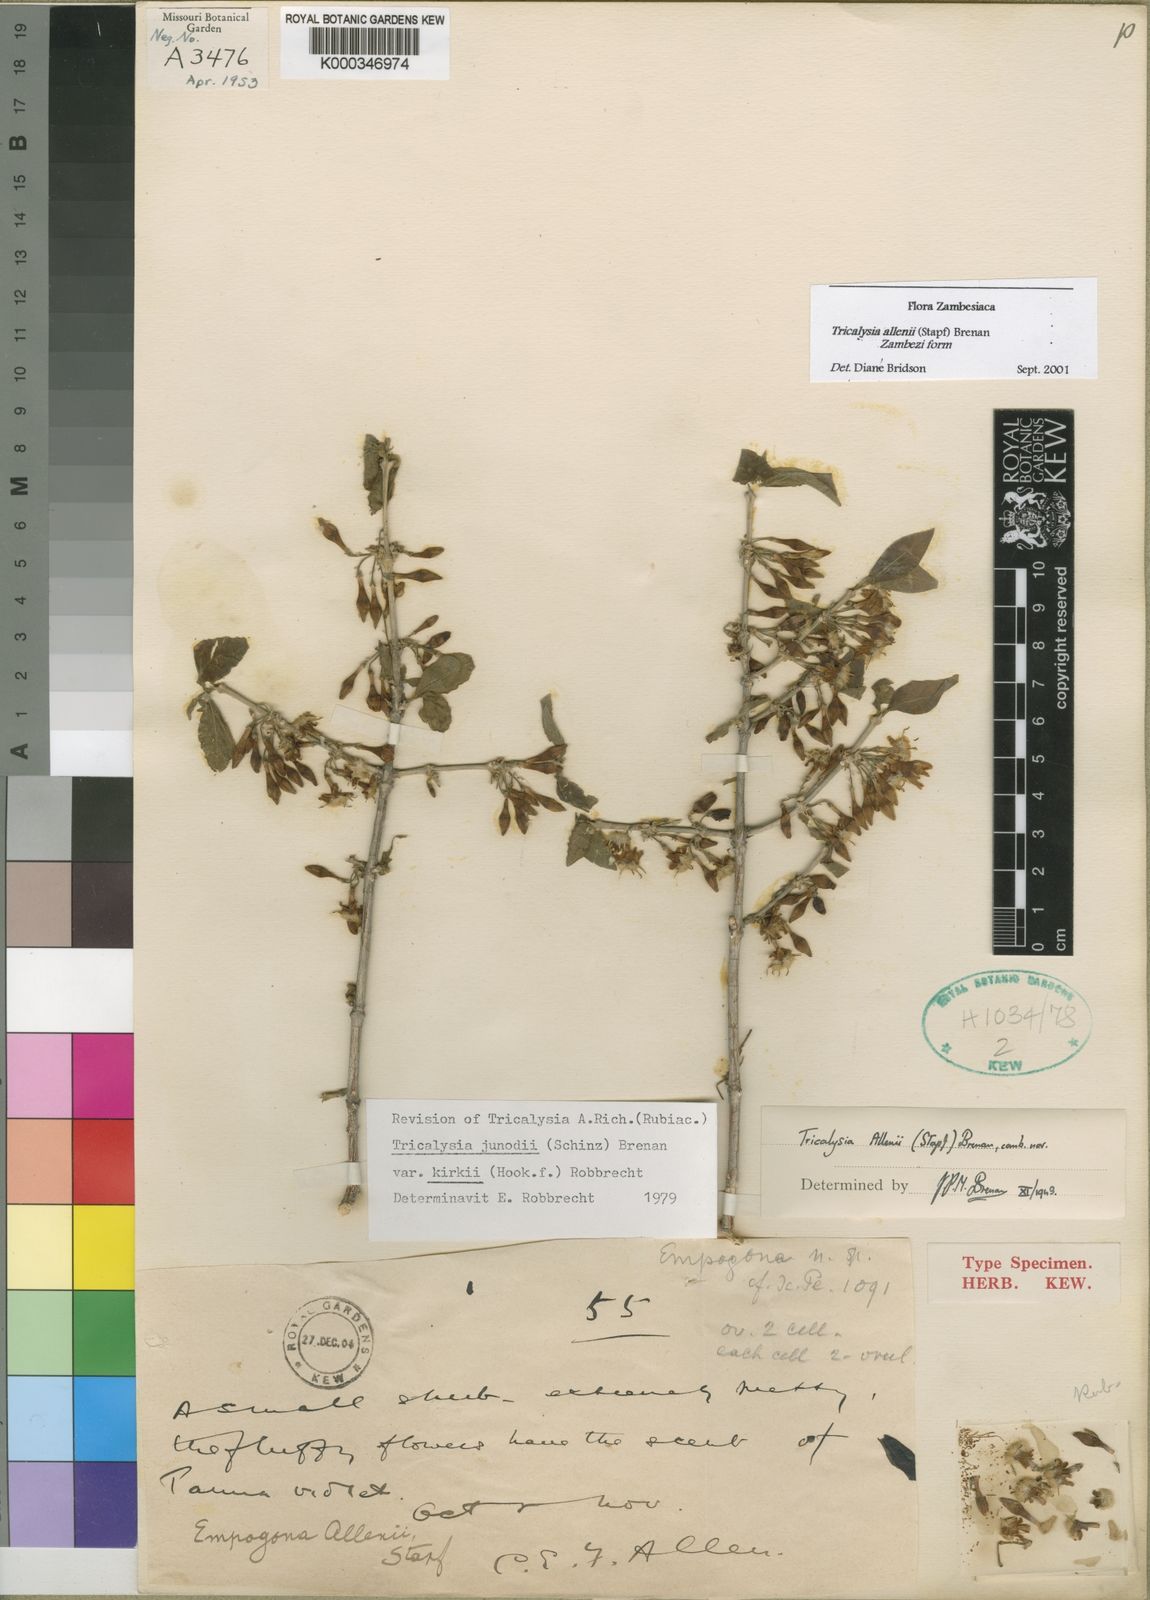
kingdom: Plantae
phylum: Tracheophyta
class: Magnoliopsida
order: Gentianales
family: Rubiaceae
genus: Empogona
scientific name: Empogona kirkii
